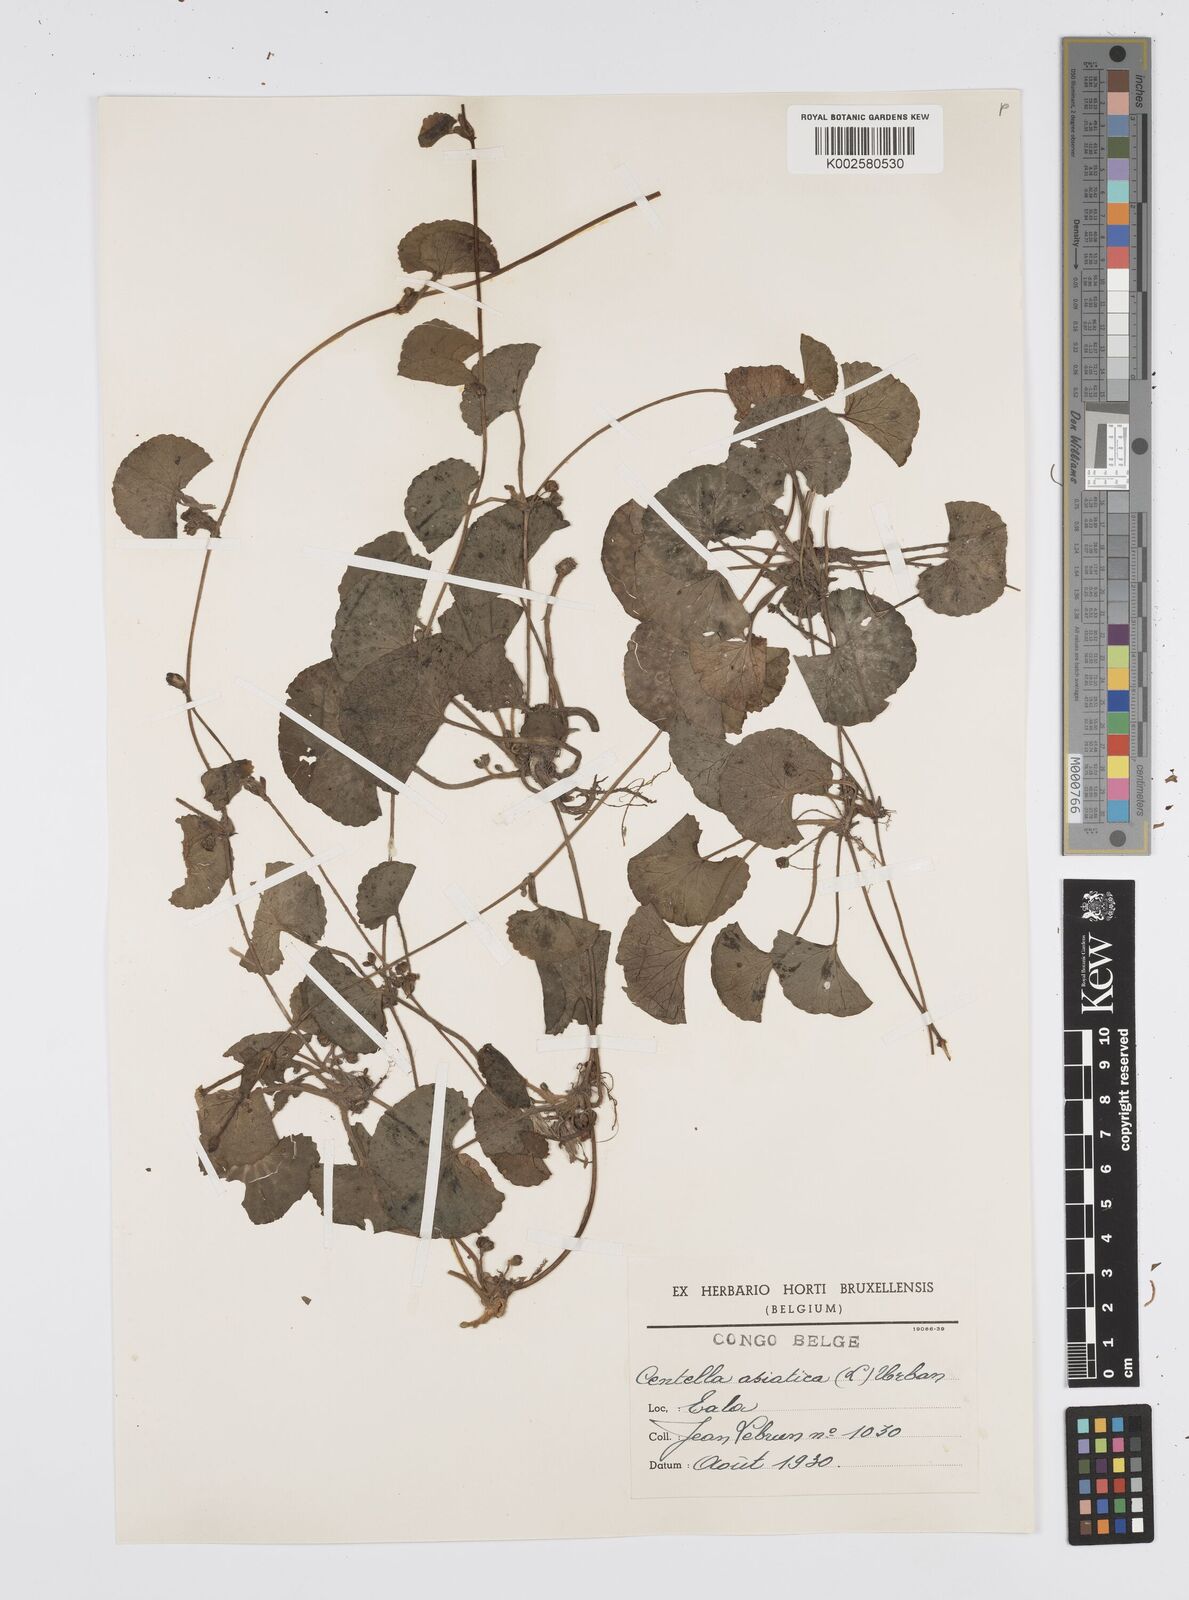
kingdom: Plantae
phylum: Tracheophyta
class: Magnoliopsida
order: Apiales
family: Apiaceae
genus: Centella
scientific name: Centella asiatica
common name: Spadeleaf
